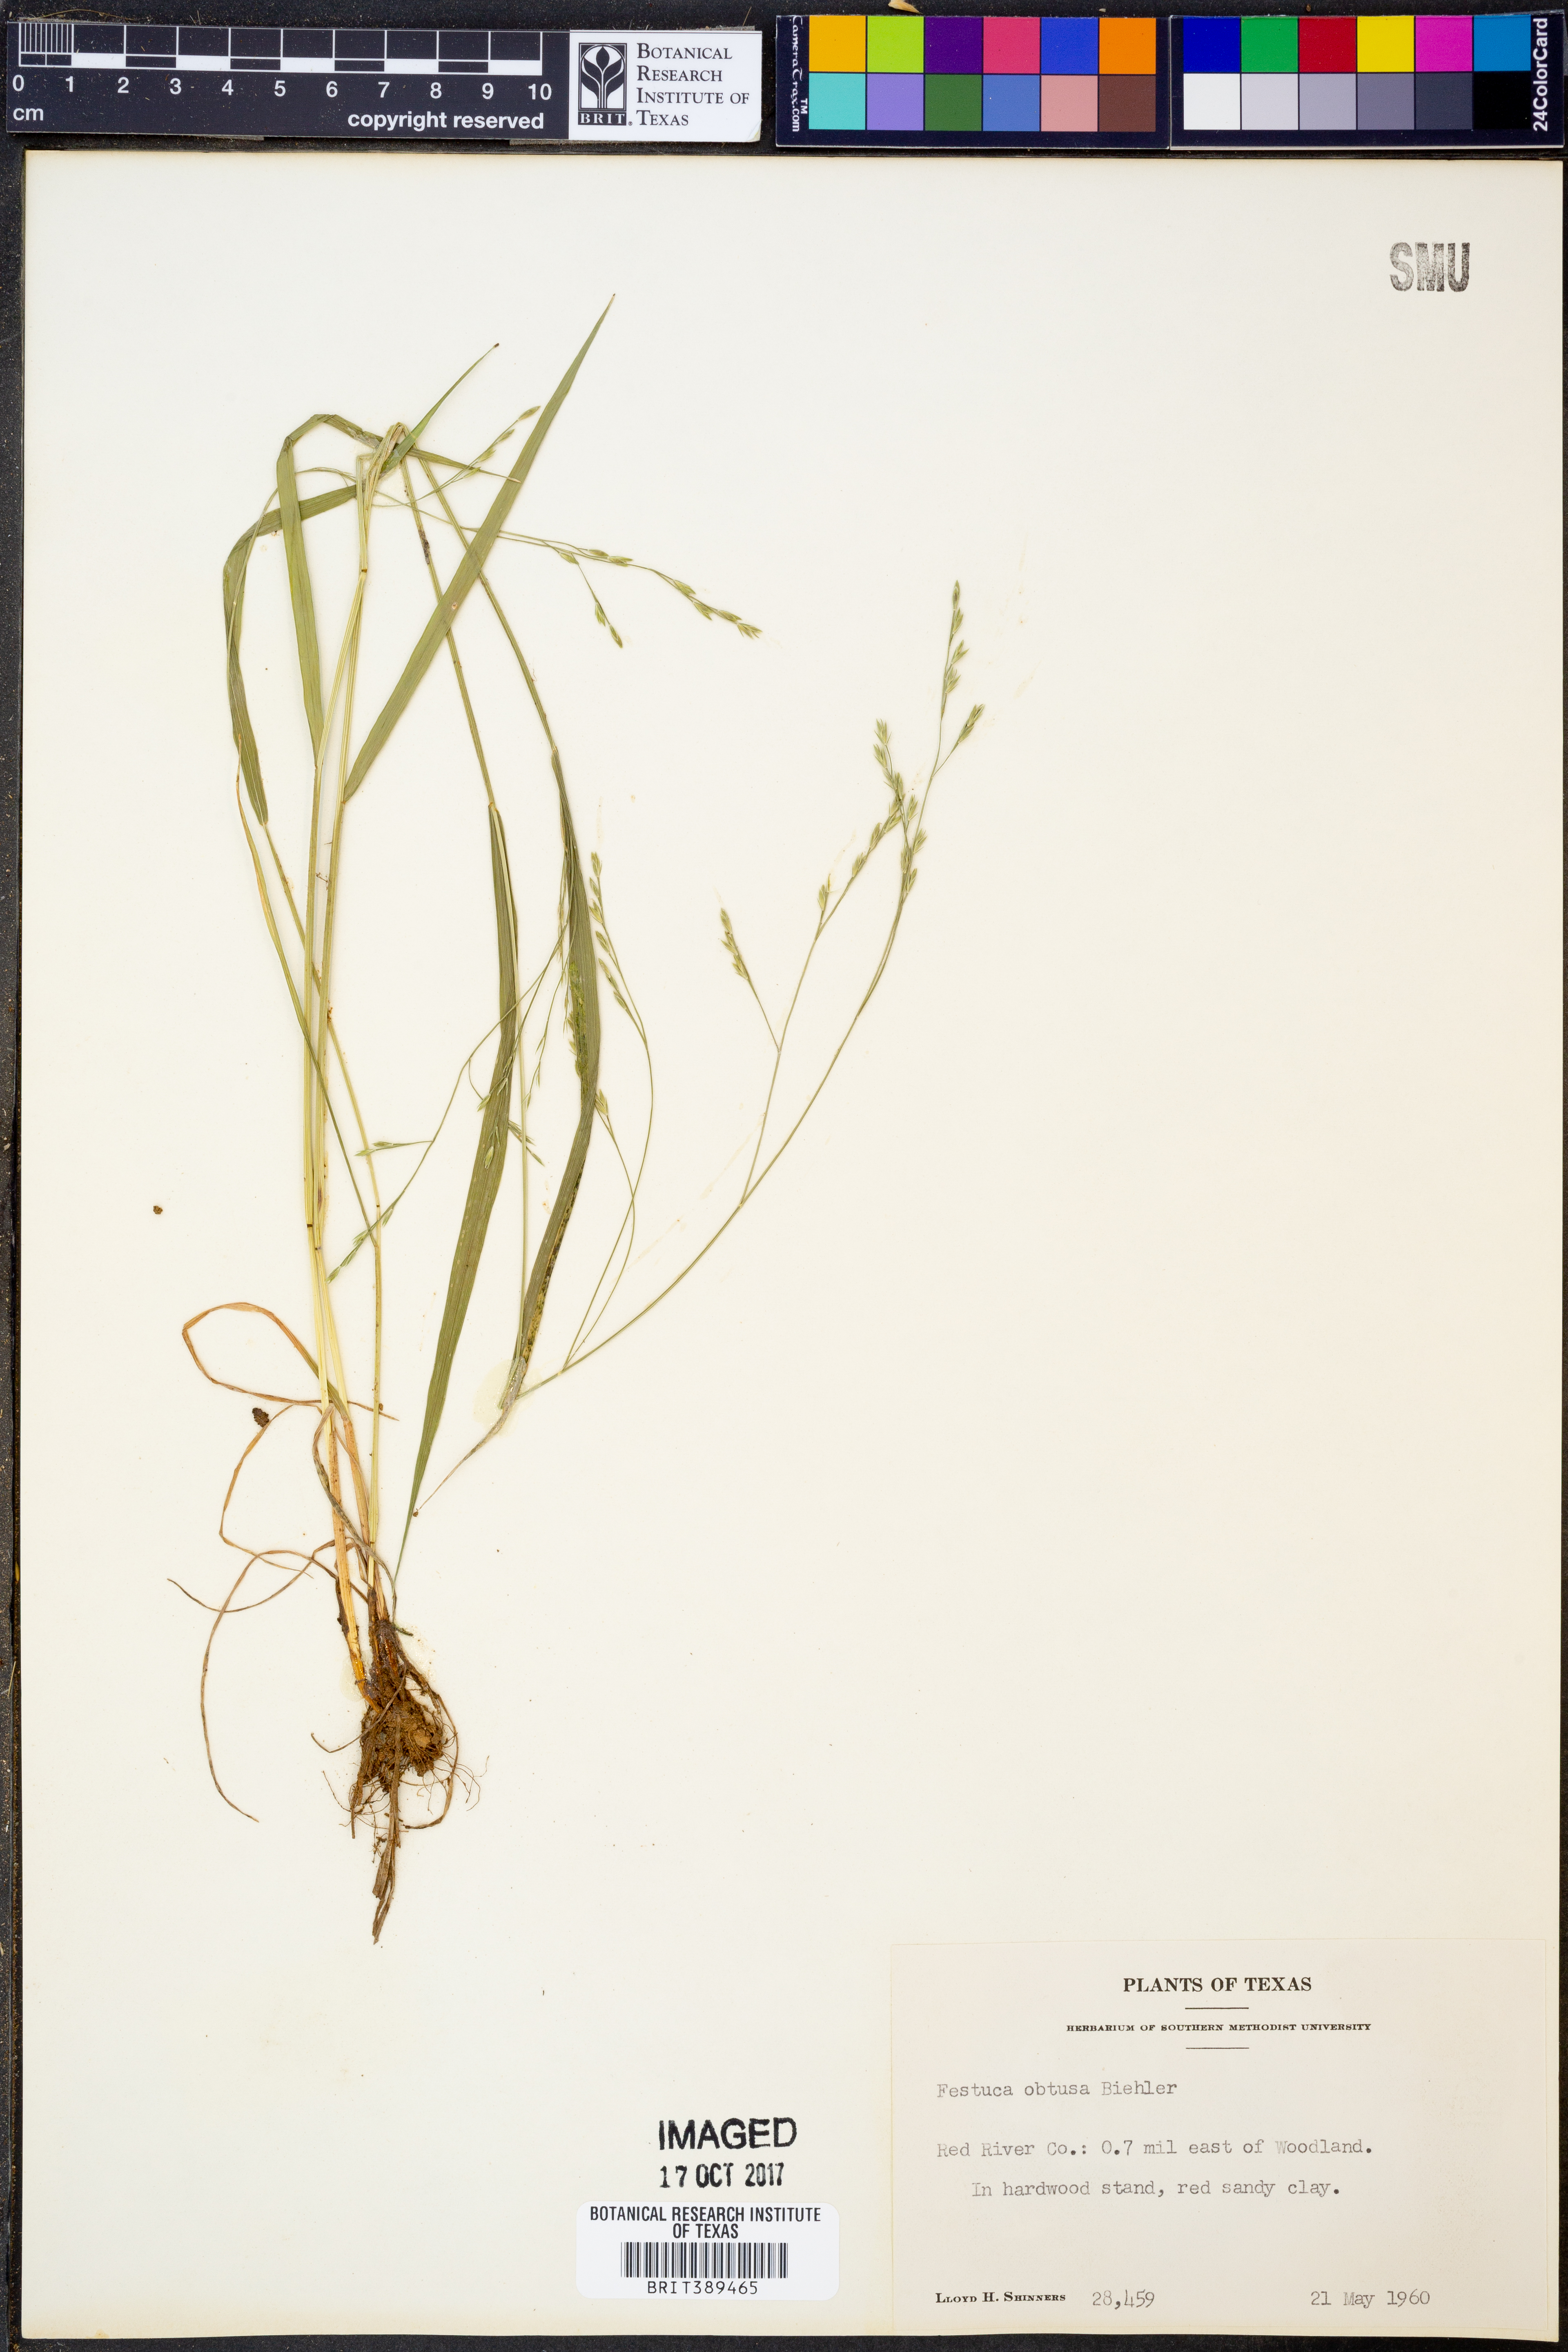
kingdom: Plantae
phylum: Tracheophyta
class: Liliopsida
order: Poales
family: Poaceae
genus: Festuca
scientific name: Festuca subverticillata
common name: Nodding fescue
